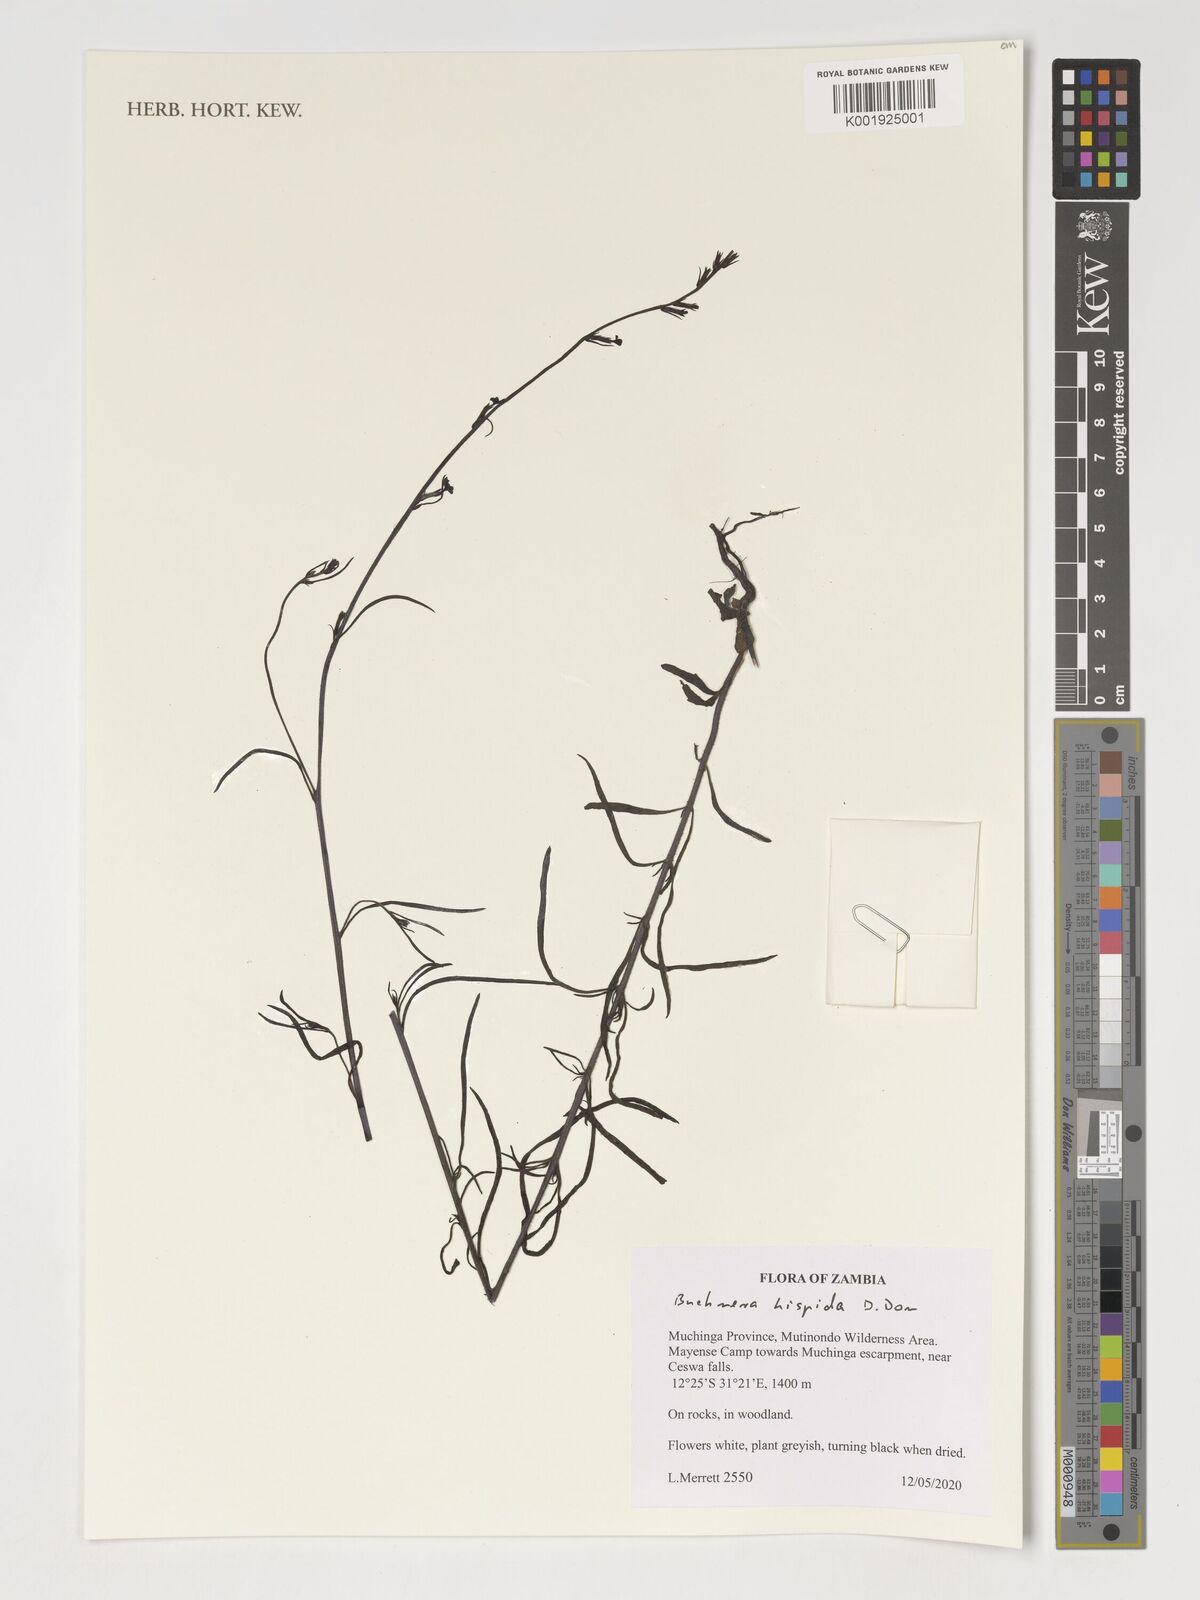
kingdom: Plantae
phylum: Tracheophyta
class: Magnoliopsida
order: Lamiales
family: Orobanchaceae
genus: Buchnera
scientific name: Buchnera hispida
